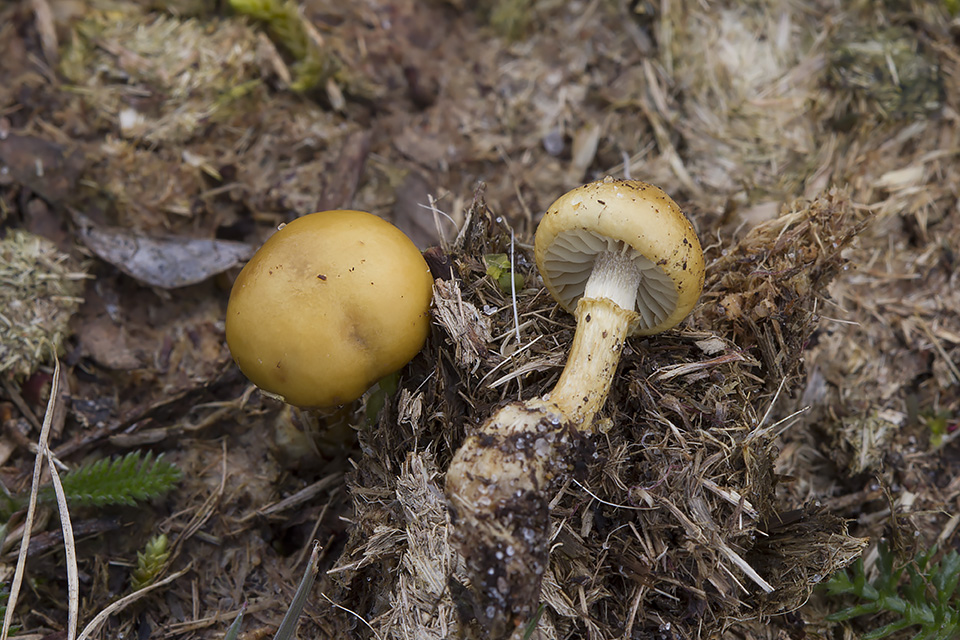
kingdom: Fungi
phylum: Basidiomycota
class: Agaricomycetes
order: Agaricales
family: Strophariaceae
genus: Protostropharia
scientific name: Protostropharia semiglobata
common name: halvkugleformet bredblad
